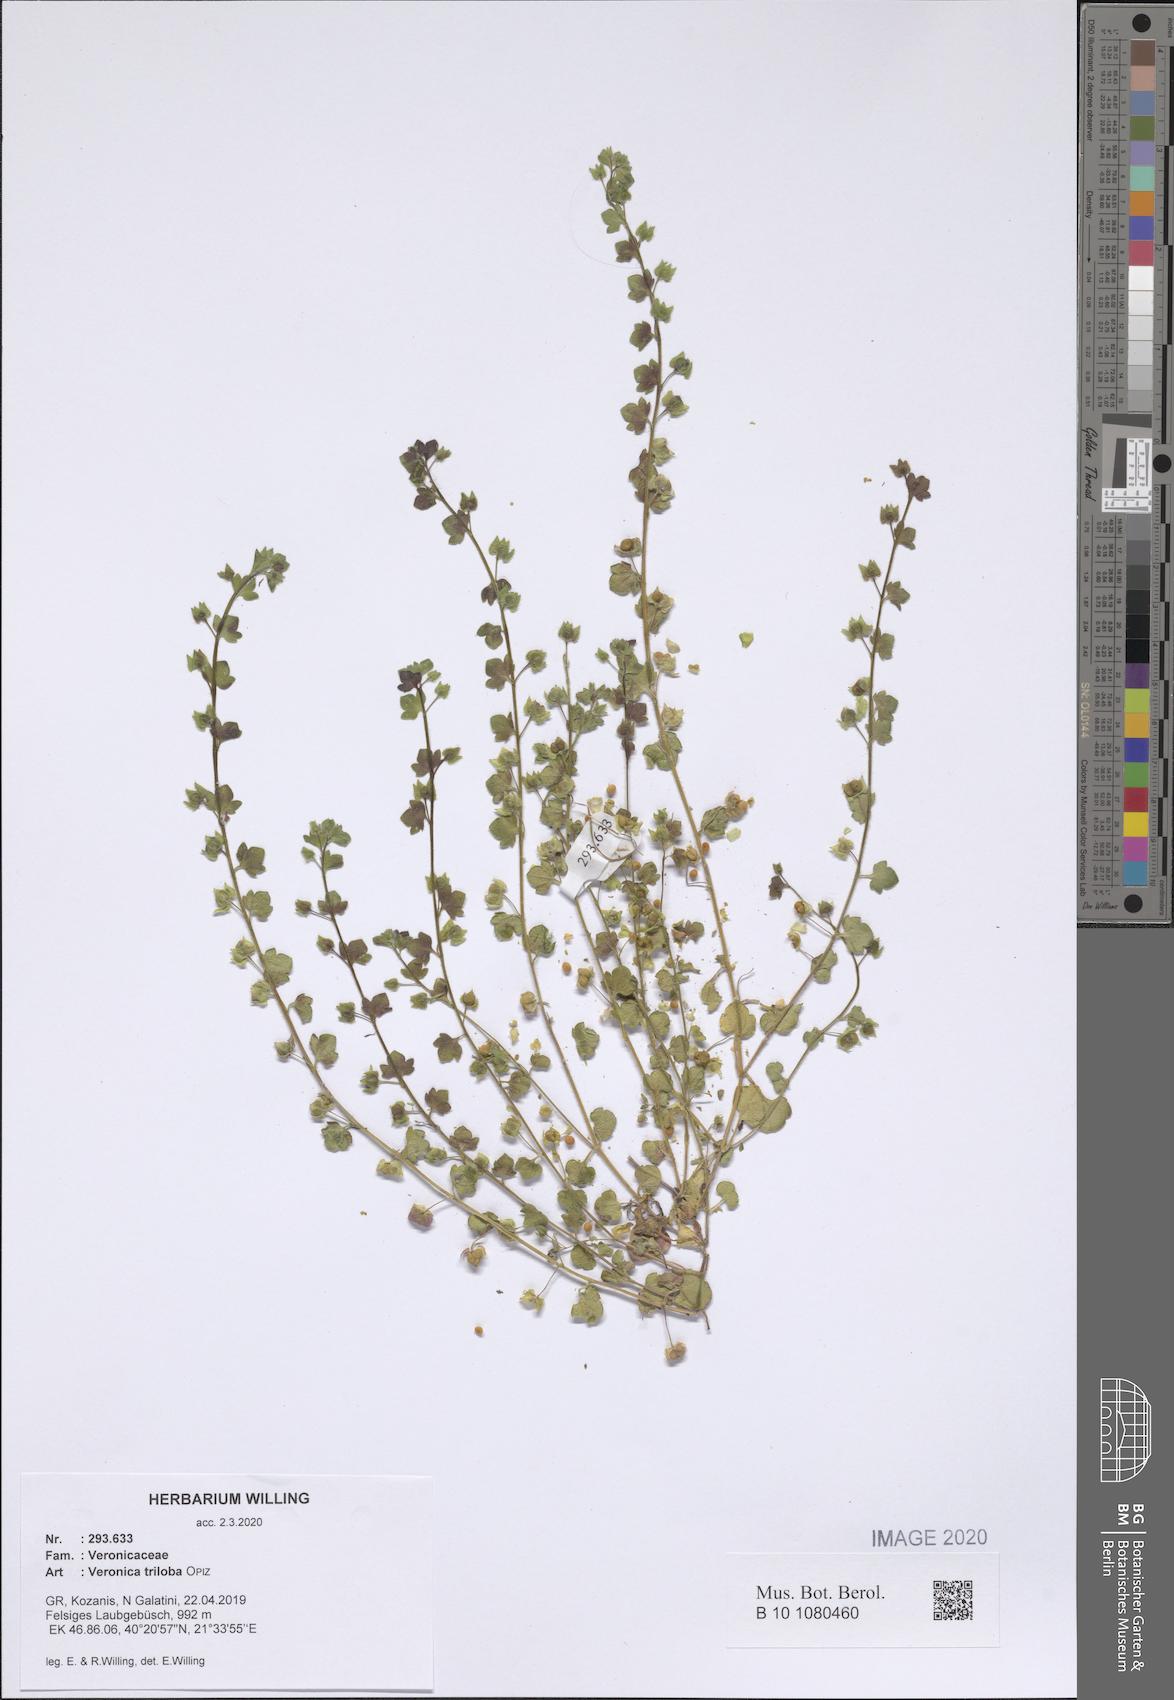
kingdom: Plantae
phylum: Tracheophyta
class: Magnoliopsida
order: Lamiales
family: Plantaginaceae
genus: Veronica
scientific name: Veronica triloba
